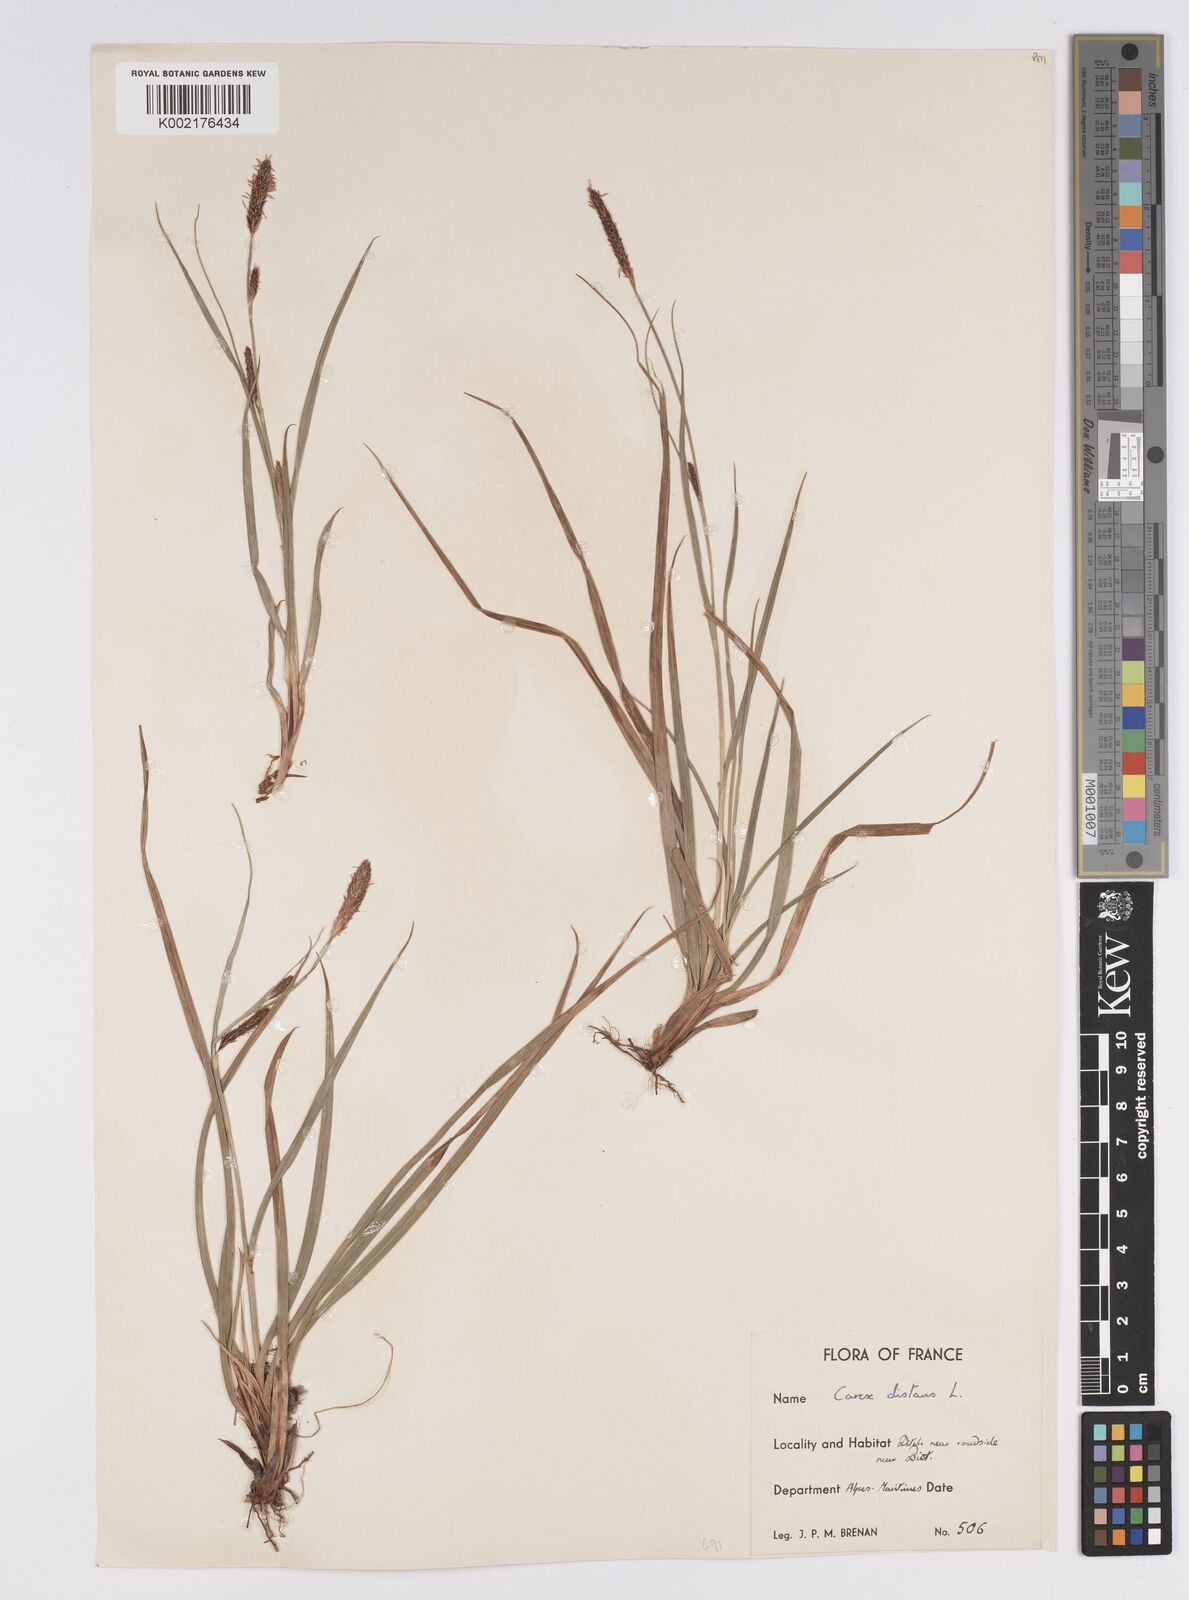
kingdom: Plantae
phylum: Tracheophyta
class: Liliopsida
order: Poales
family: Cyperaceae
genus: Carex
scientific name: Carex distans
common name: Distant sedge
